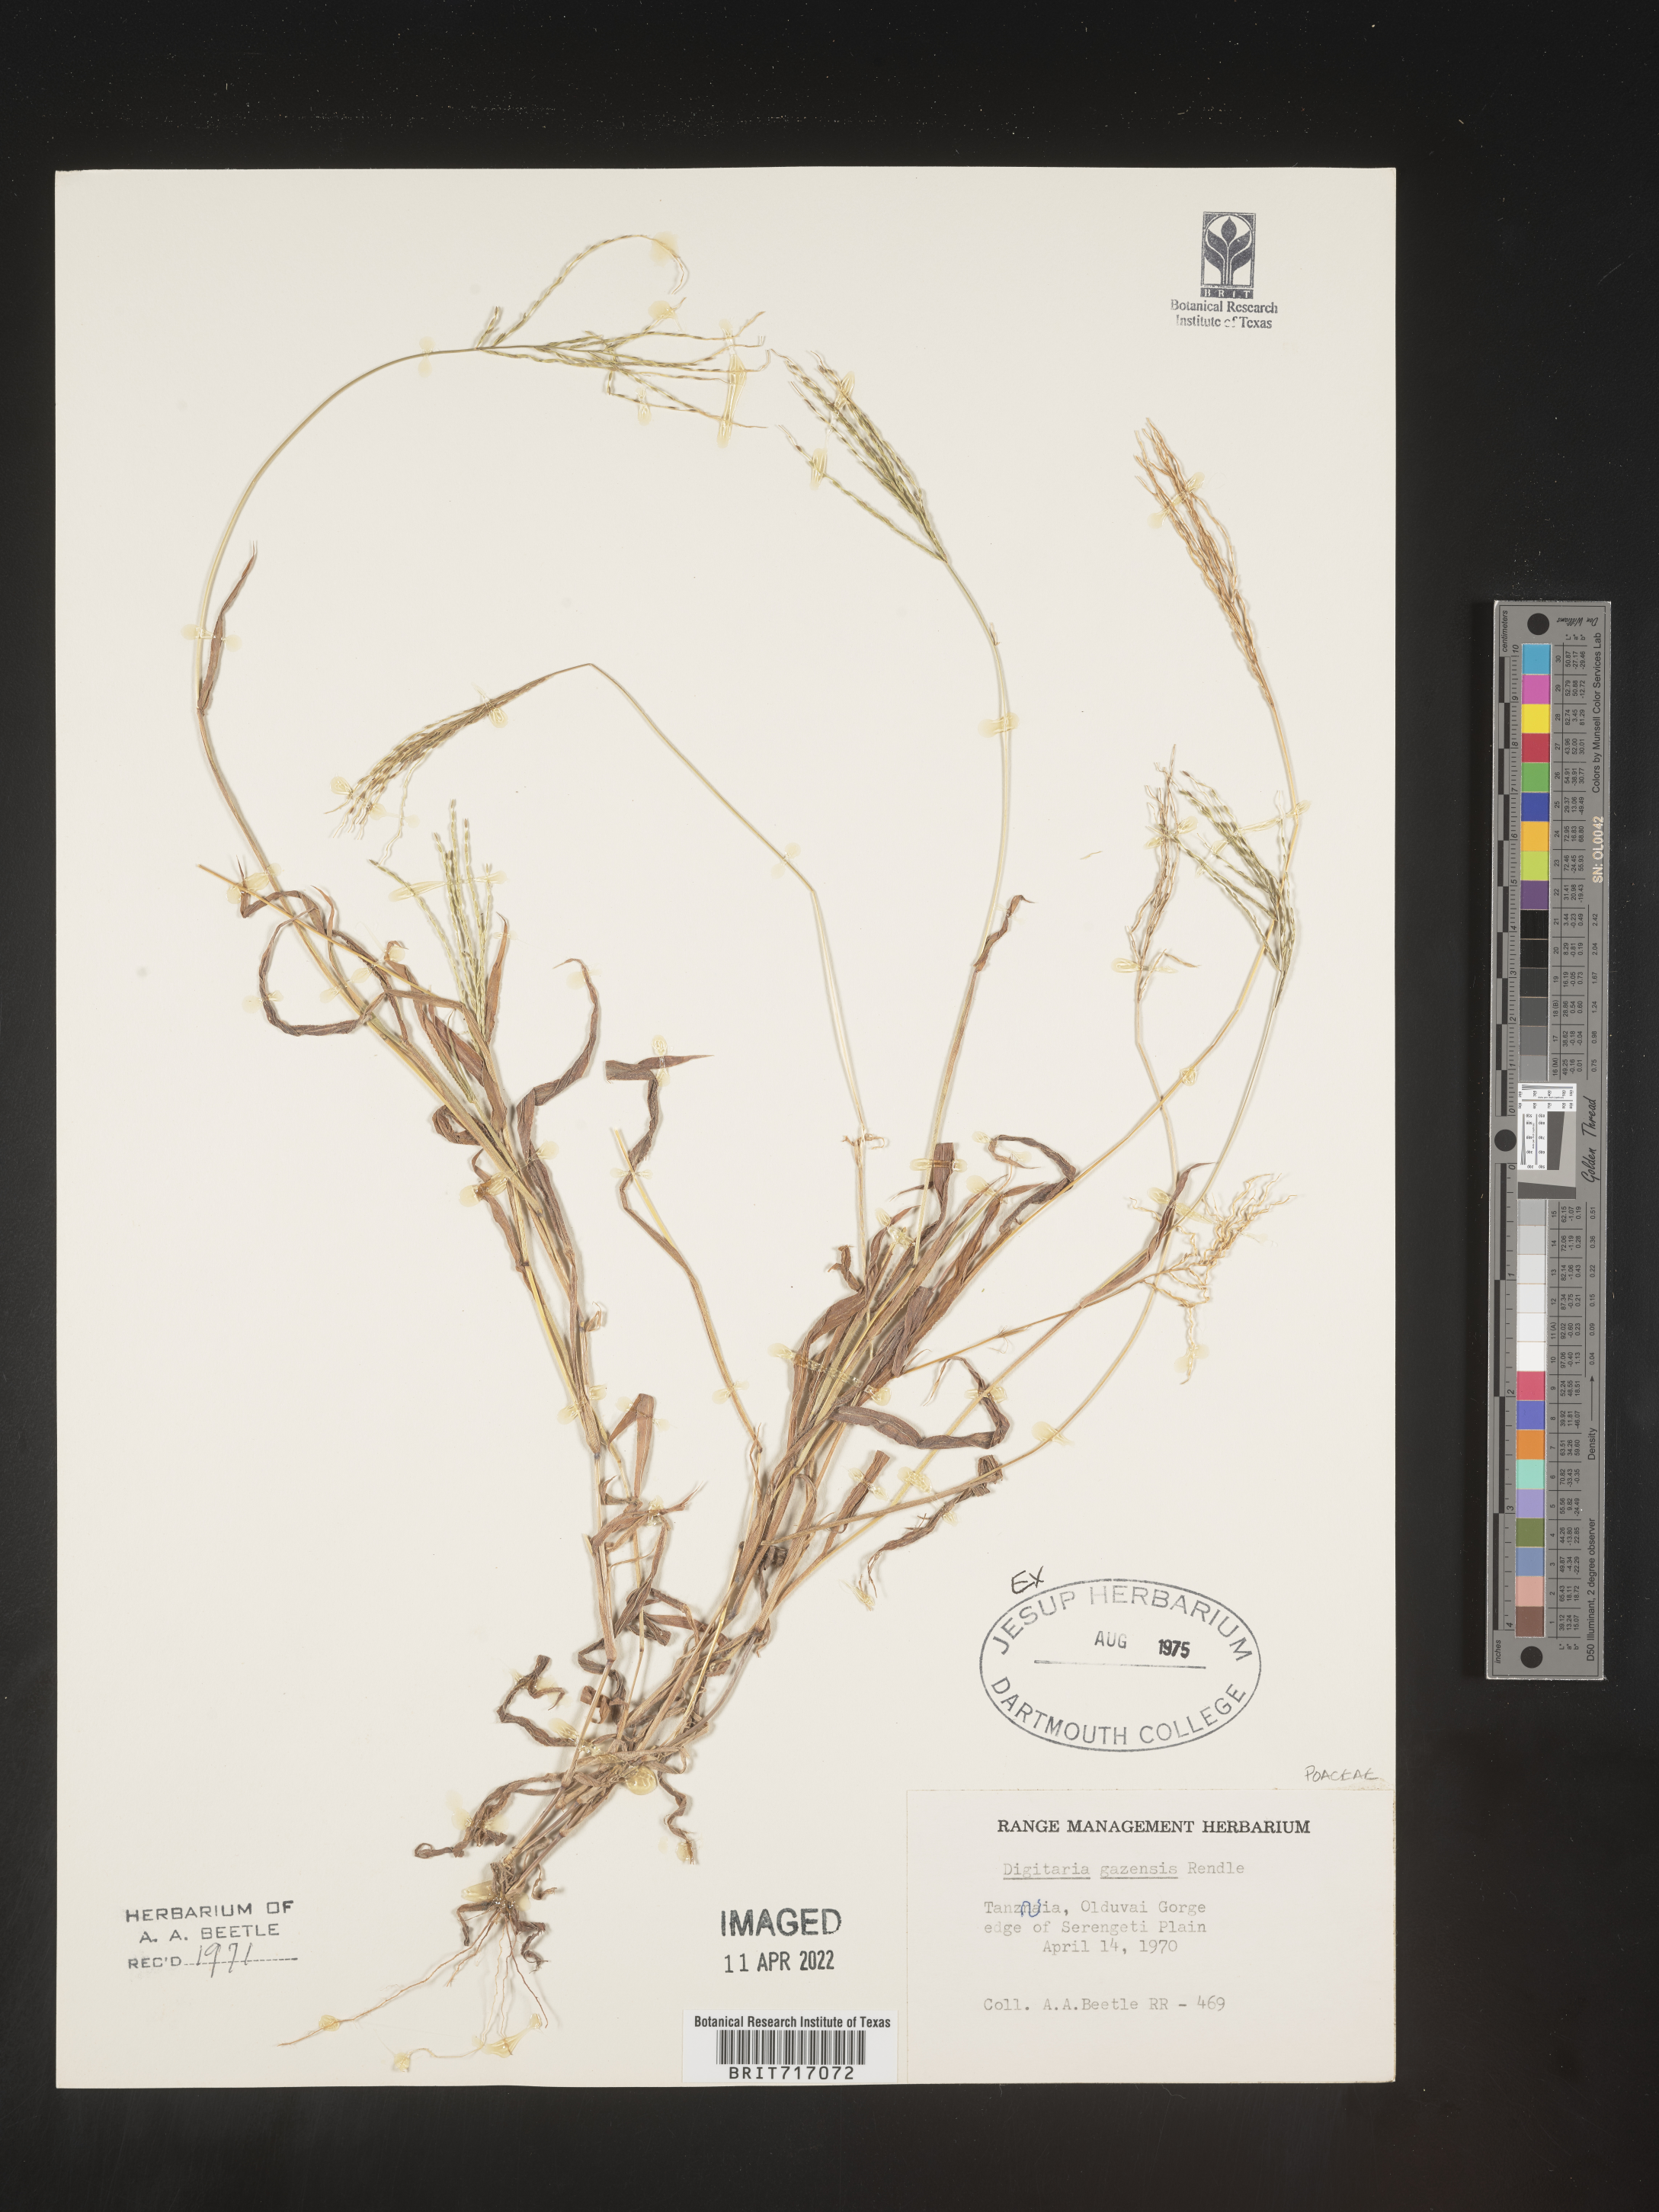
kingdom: Plantae
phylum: Tracheophyta
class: Liliopsida
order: Poales
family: Poaceae
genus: Digitaria
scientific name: Digitaria
